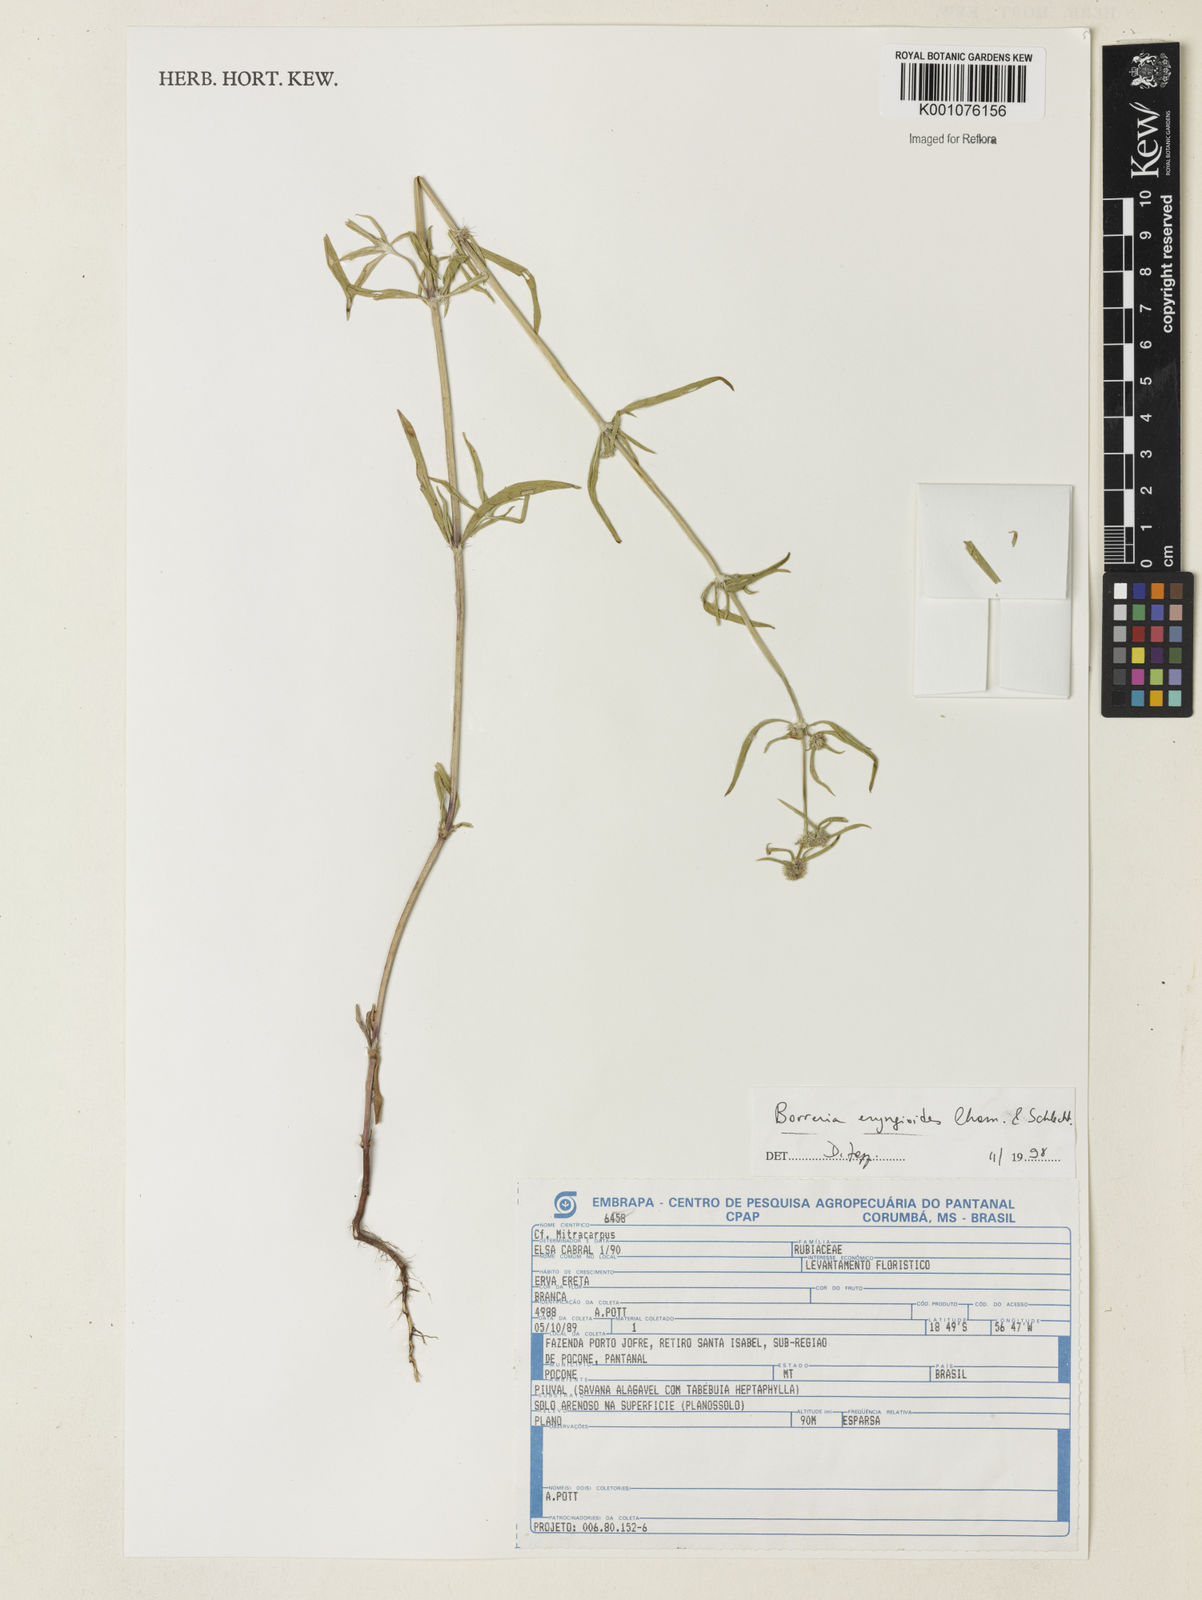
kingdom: Plantae
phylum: Tracheophyta
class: Magnoliopsida
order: Gentianales
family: Rubiaceae
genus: Spermacoce
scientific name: Spermacoce eryngioides
